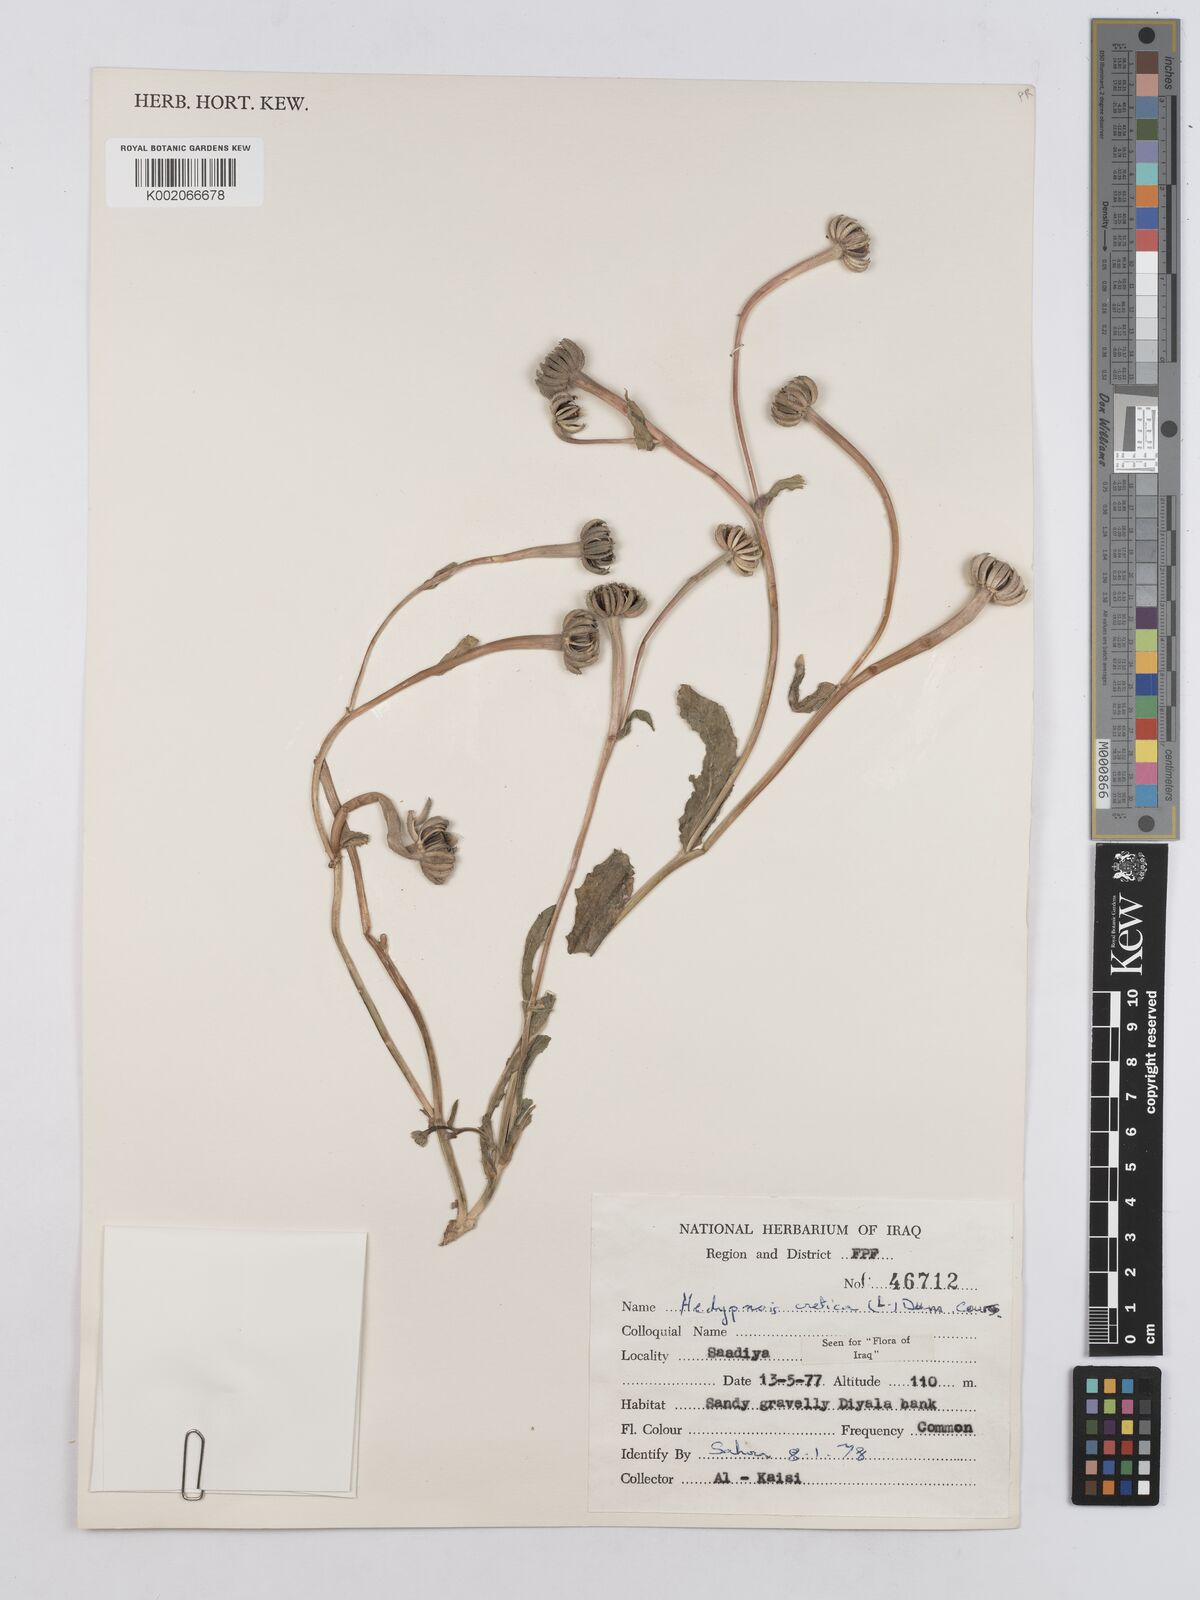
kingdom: Plantae
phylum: Tracheophyta
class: Magnoliopsida
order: Asterales
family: Asteraceae
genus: Hedypnois
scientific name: Hedypnois cretica
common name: Scaly hawkbit
